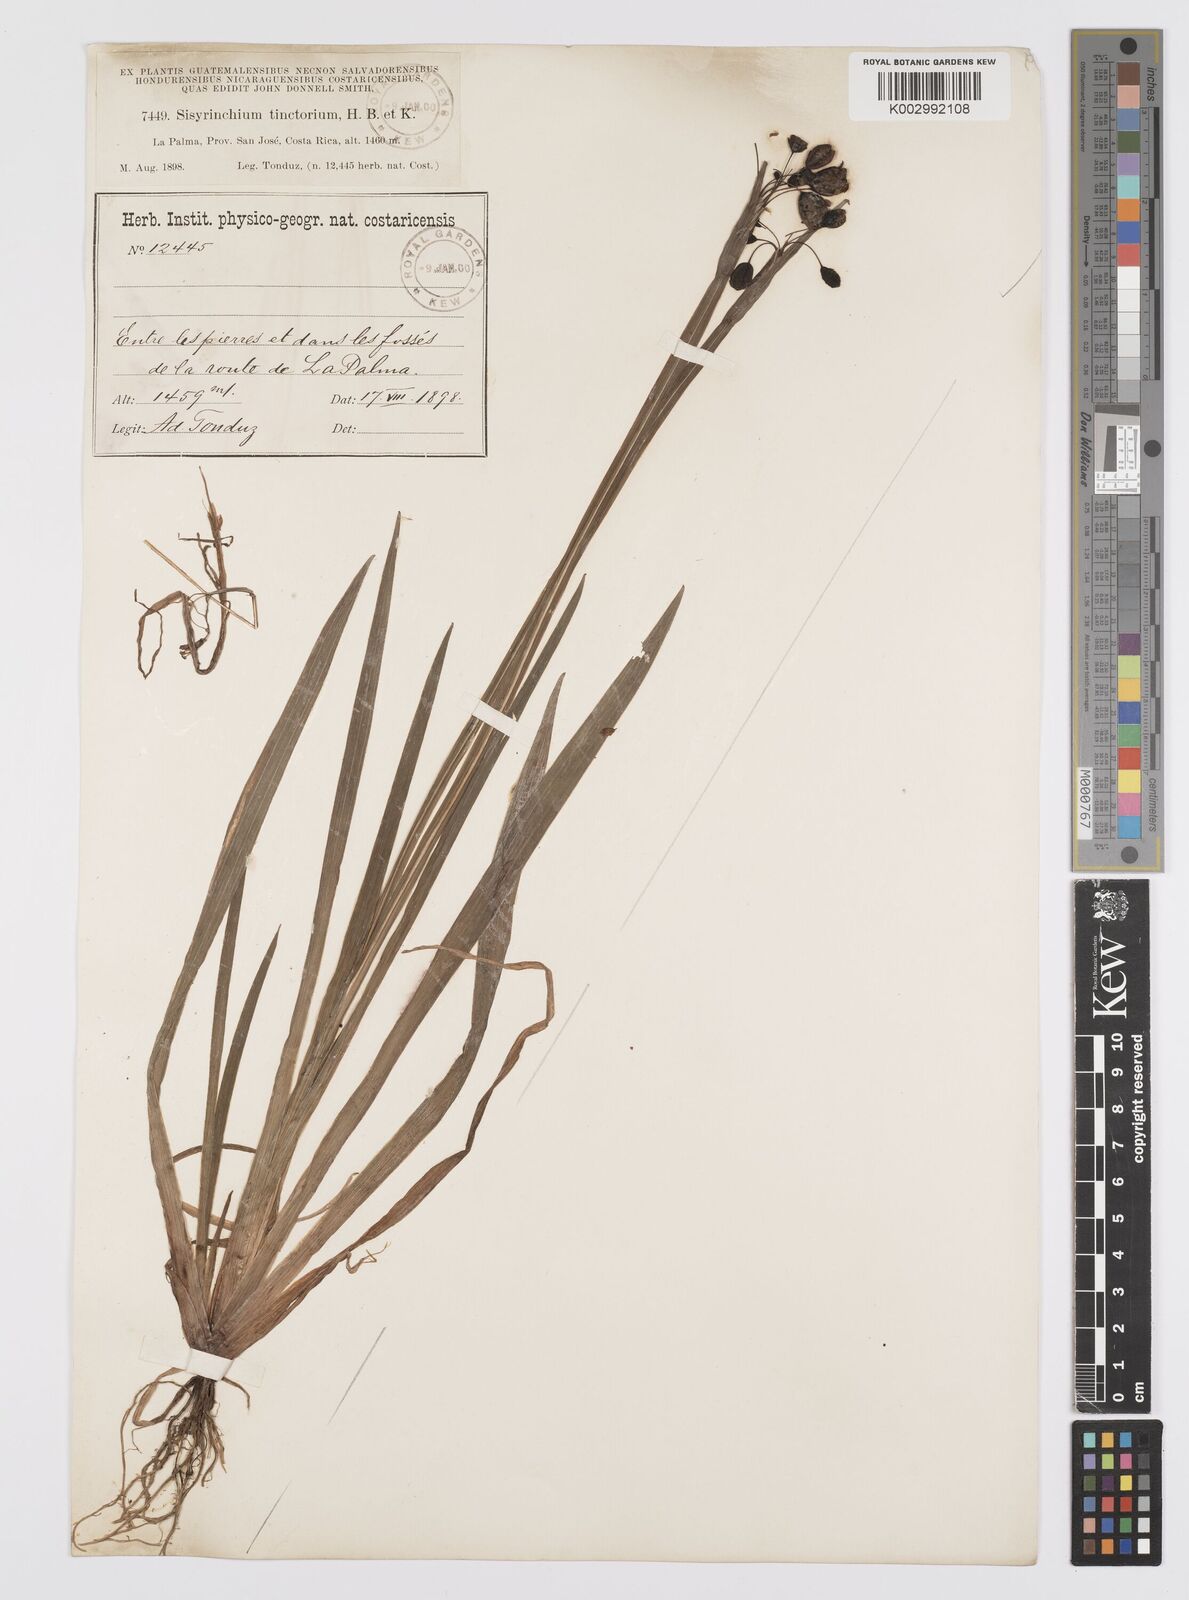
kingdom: Plantae
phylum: Tracheophyta
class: Liliopsida
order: Asparagales
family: Iridaceae
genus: Sisyrinchium
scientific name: Sisyrinchium tinctorium
